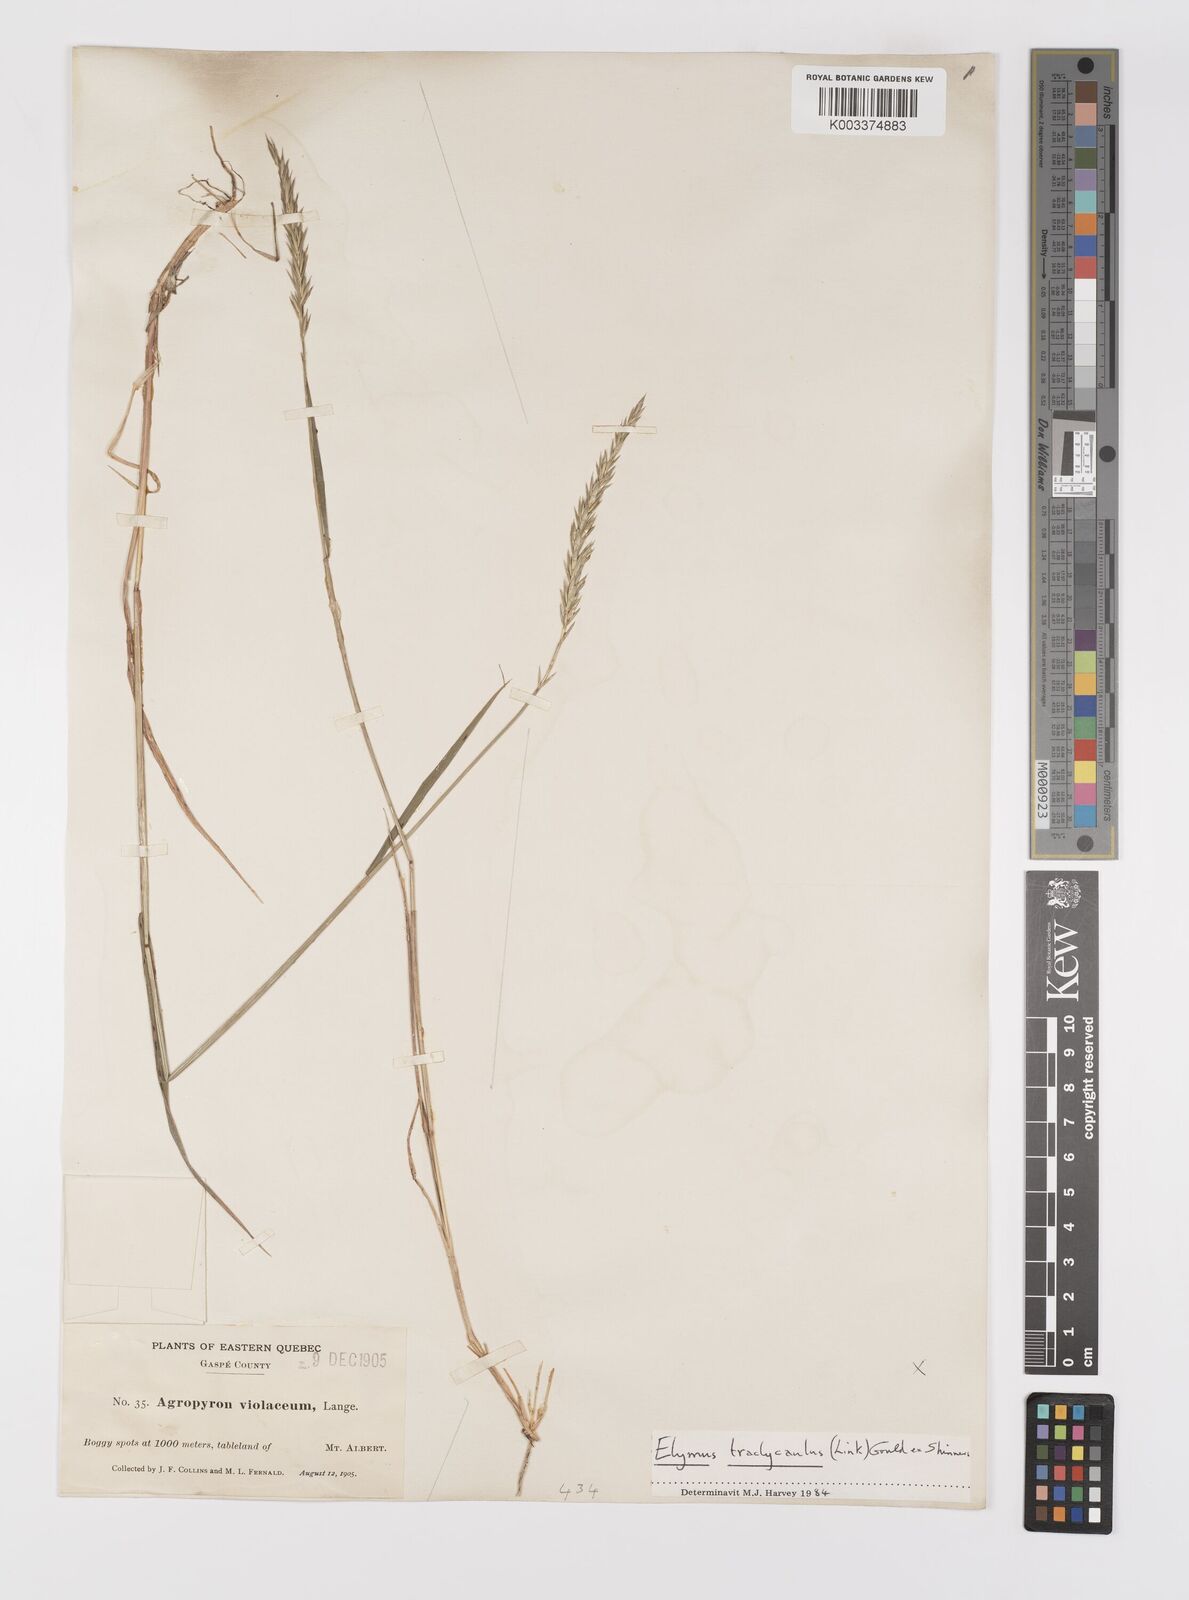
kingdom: Plantae
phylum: Tracheophyta
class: Liliopsida
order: Poales
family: Poaceae
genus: Elymus
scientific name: Elymus violaceus
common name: Arctic wheatgrass
